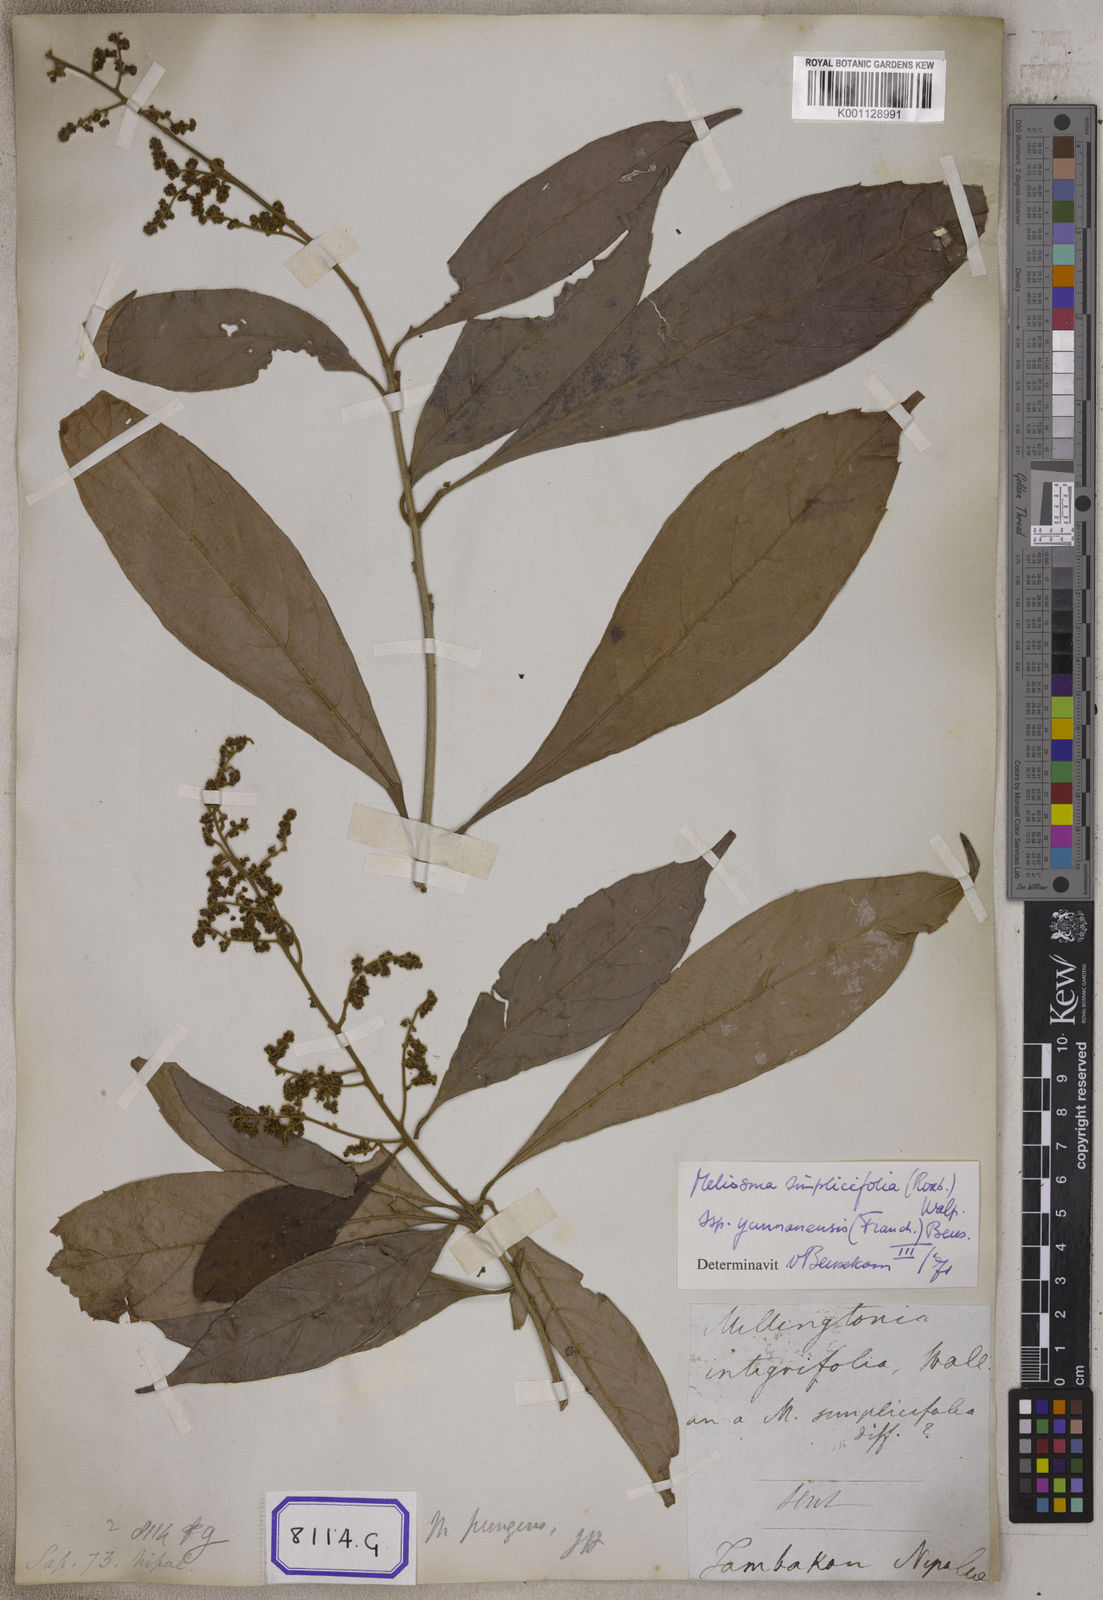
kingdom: Plantae
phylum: Tracheophyta
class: Magnoliopsida
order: Proteales
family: Sabiaceae
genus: Meliosma
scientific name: Meliosma simplicifolia
